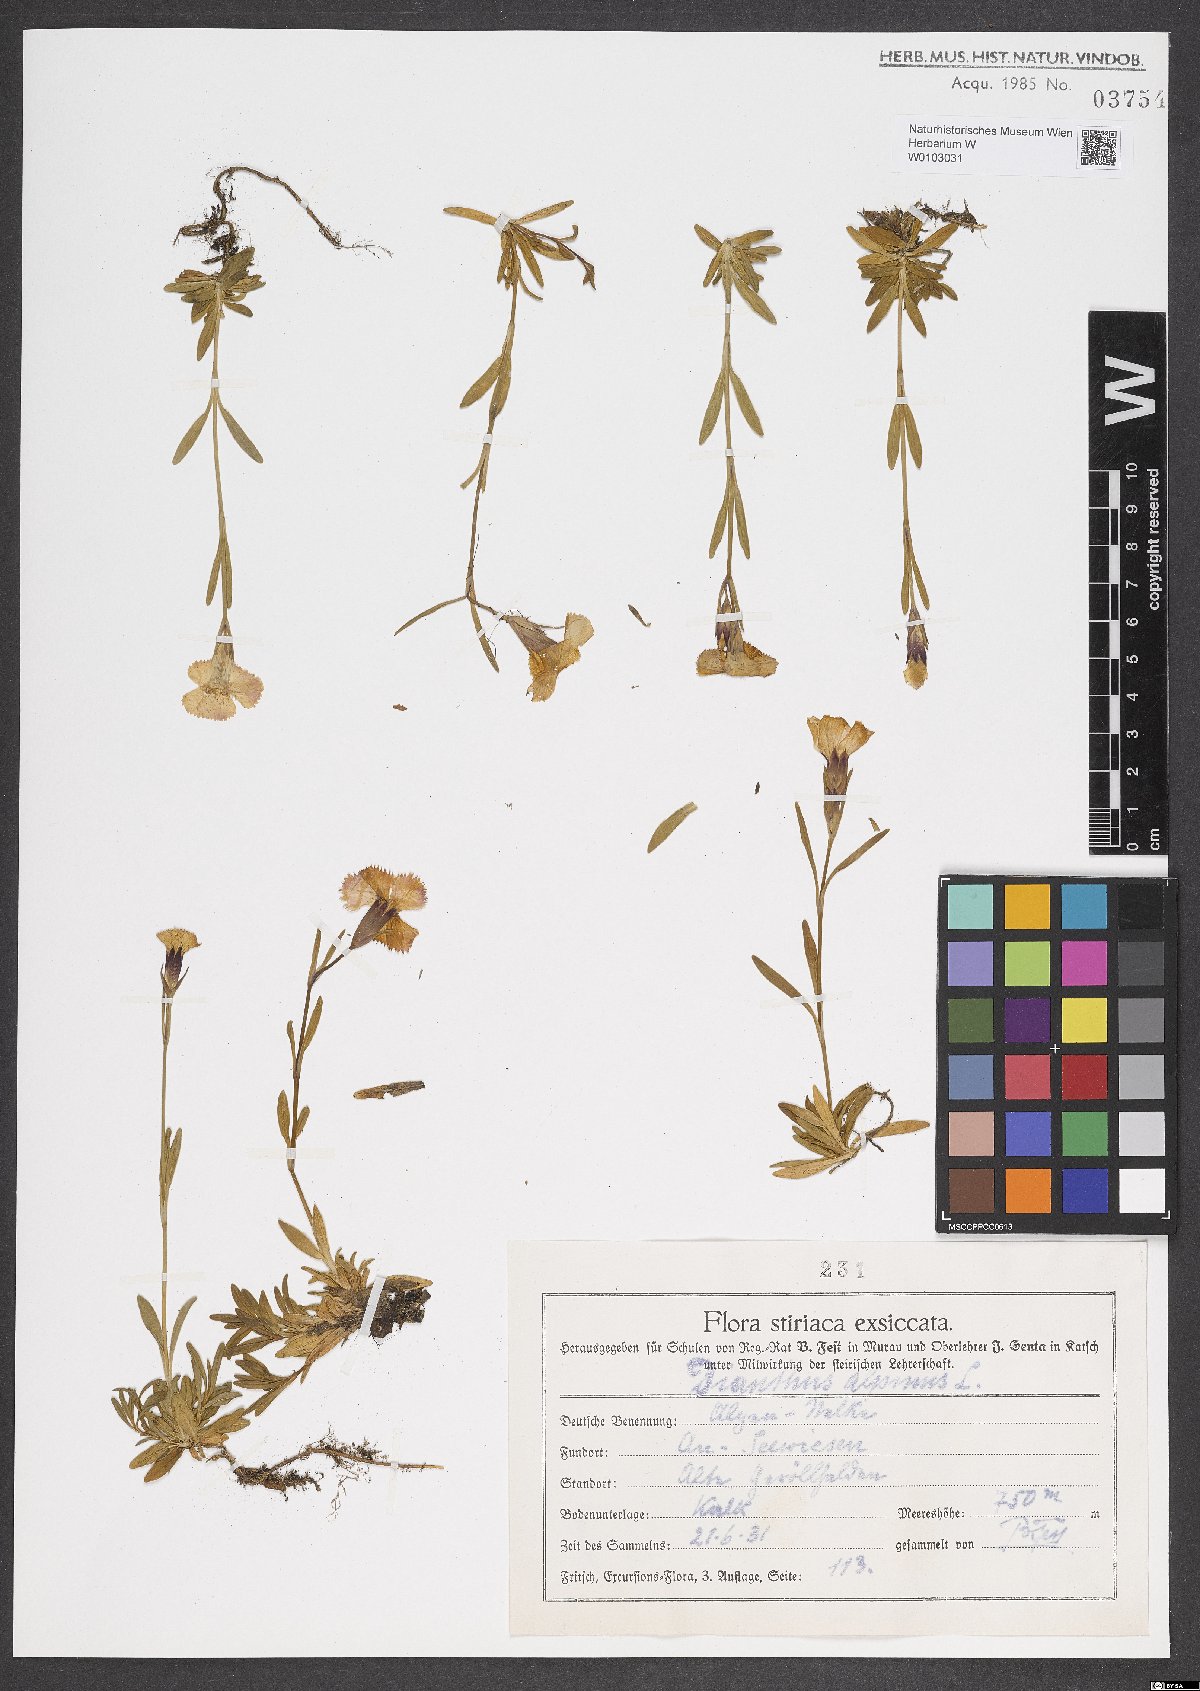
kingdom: Plantae
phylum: Tracheophyta
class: Magnoliopsida
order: Caryophyllales
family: Caryophyllaceae
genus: Dianthus
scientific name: Dianthus alpinus
